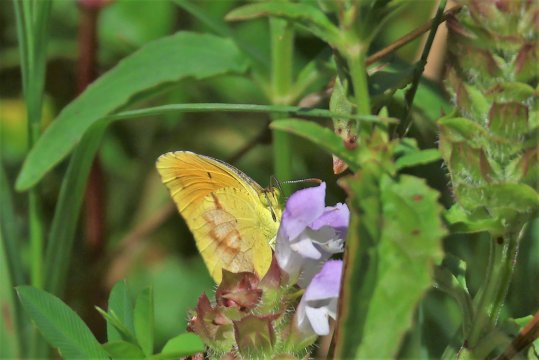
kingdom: Animalia
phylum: Arthropoda
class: Insecta
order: Lepidoptera
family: Pieridae
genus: Abaeis
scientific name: Abaeis nicippe
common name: Sleepy Orange
